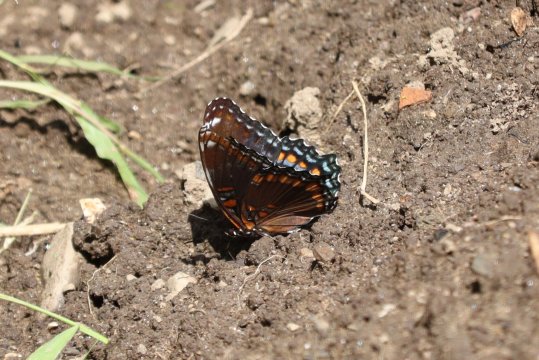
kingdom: Animalia
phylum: Arthropoda
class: Insecta
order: Lepidoptera
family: Nymphalidae
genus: Limenitis
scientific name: Limenitis arthemis
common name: Red-spotted Admiral
